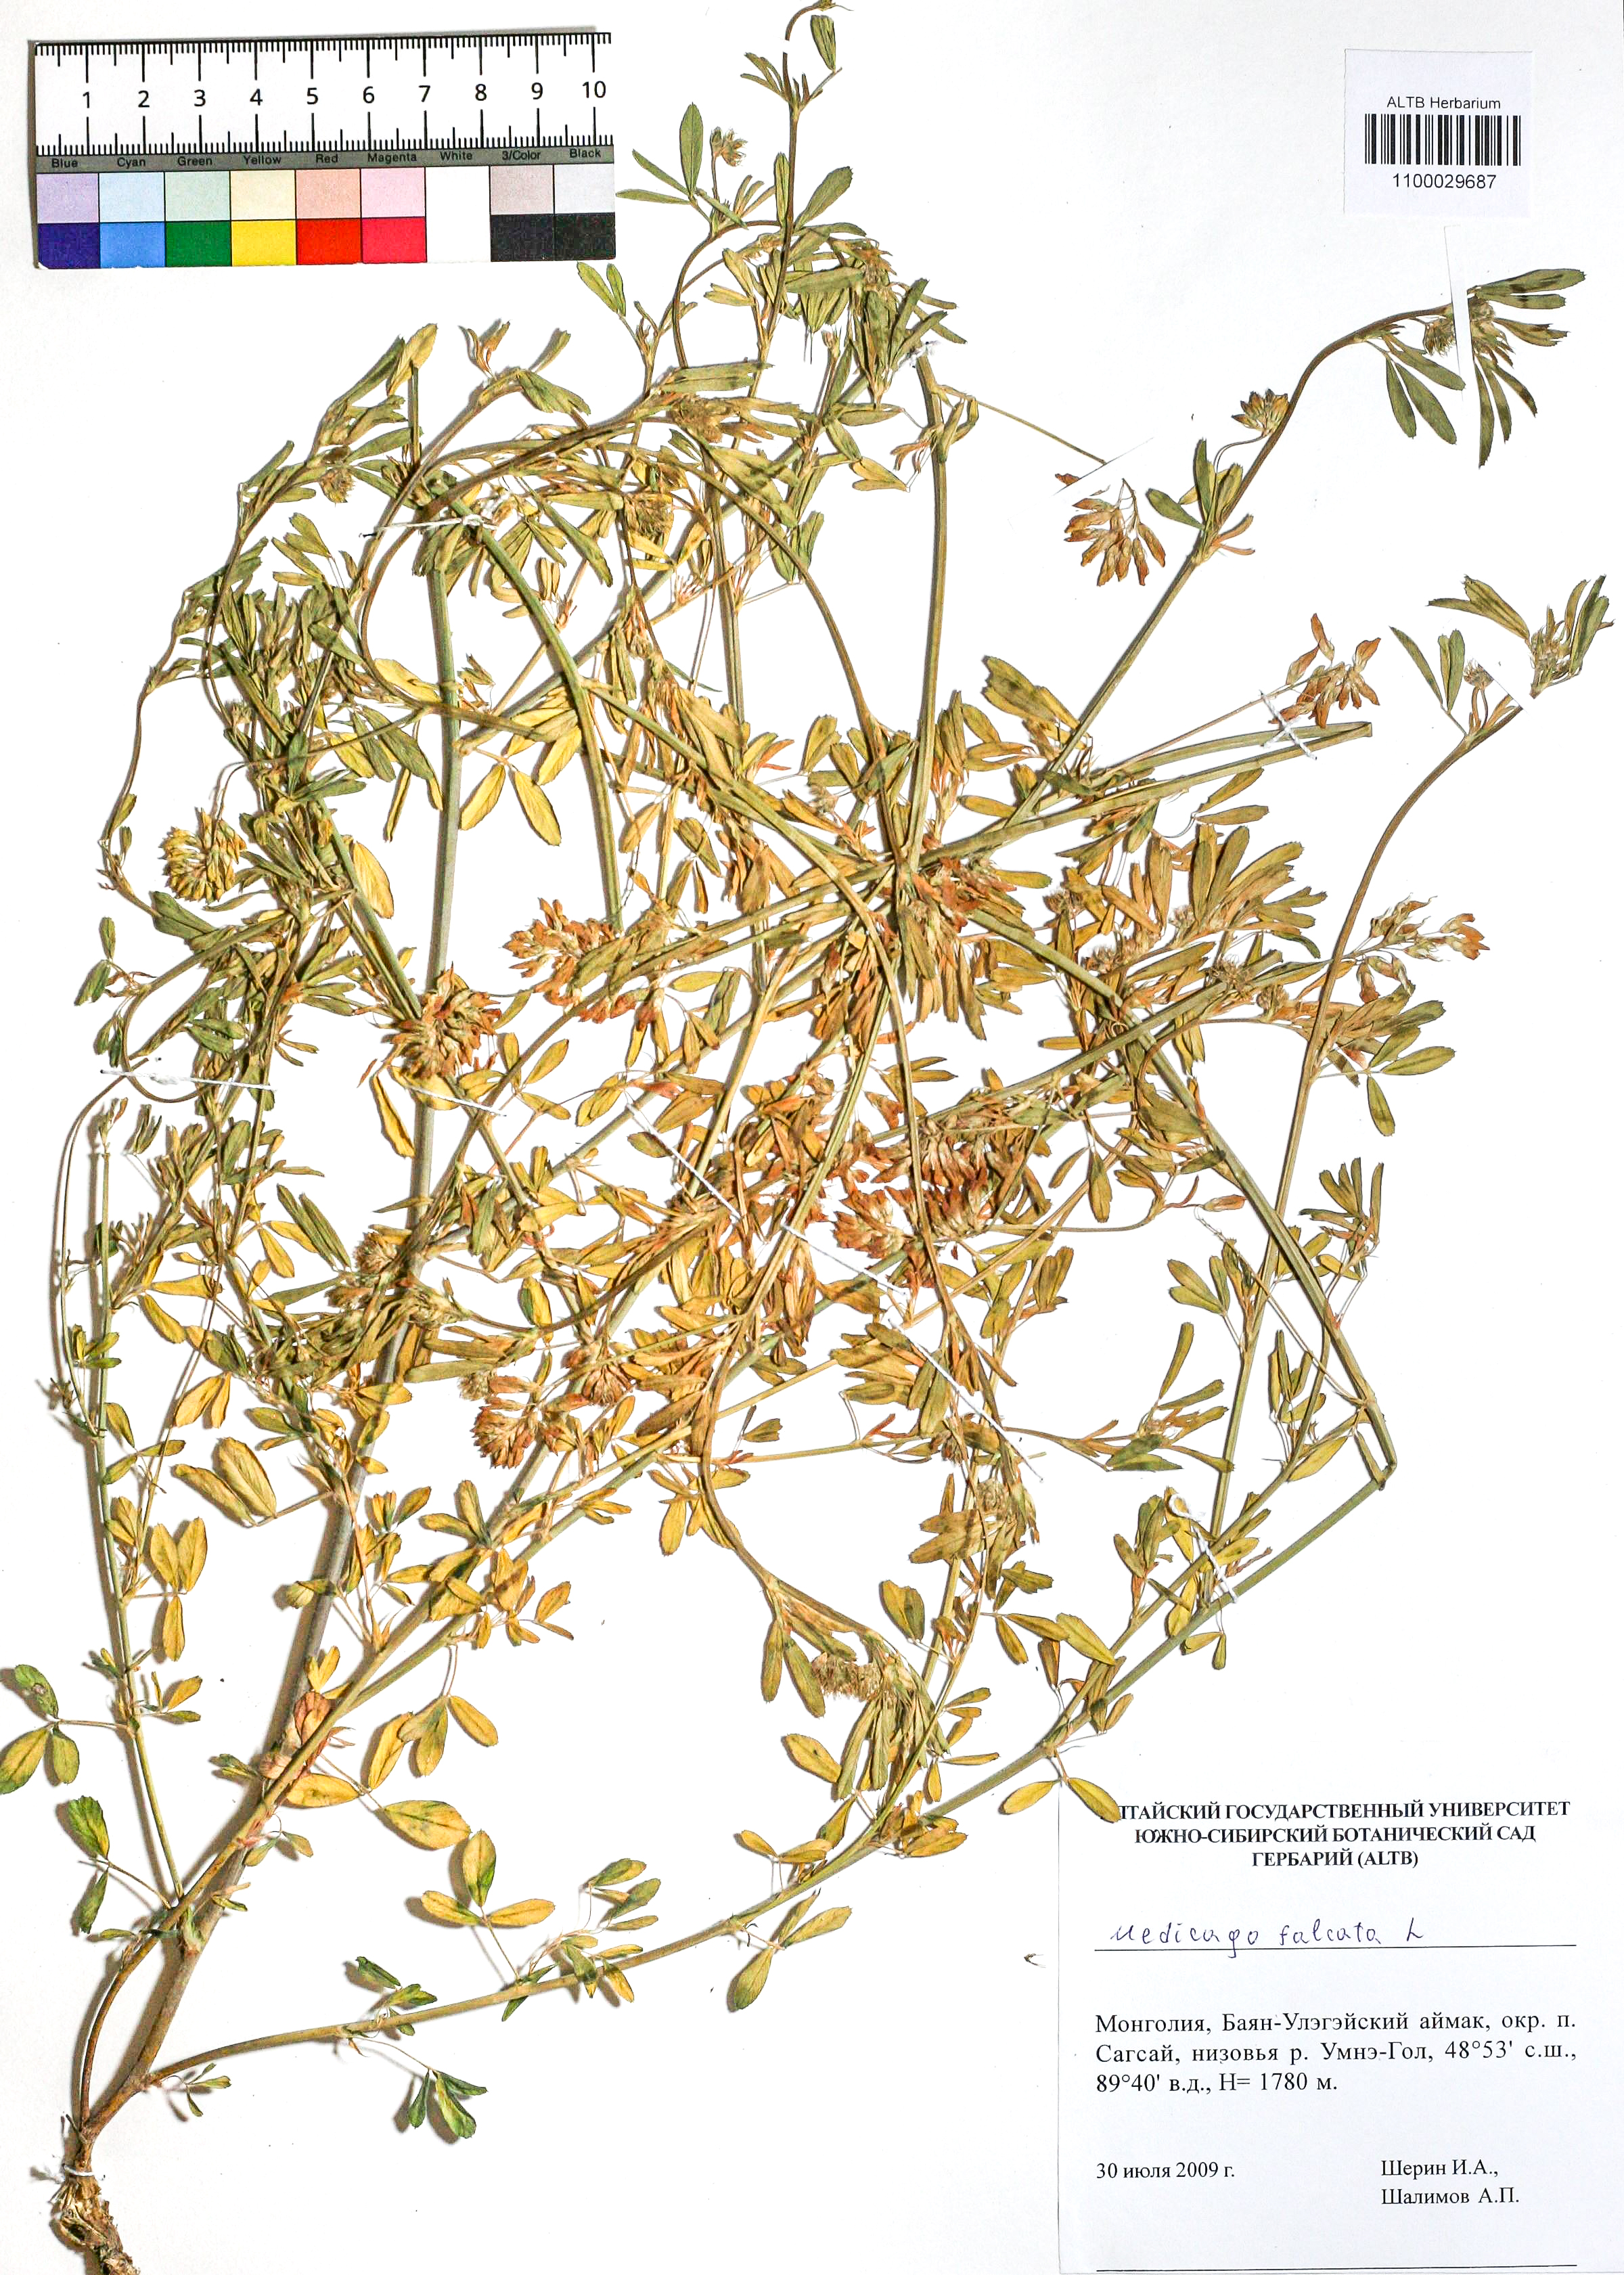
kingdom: Plantae
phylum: Tracheophyta
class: Magnoliopsida
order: Fabales
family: Fabaceae
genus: Medicago
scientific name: Medicago falcata
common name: Sickle medick
